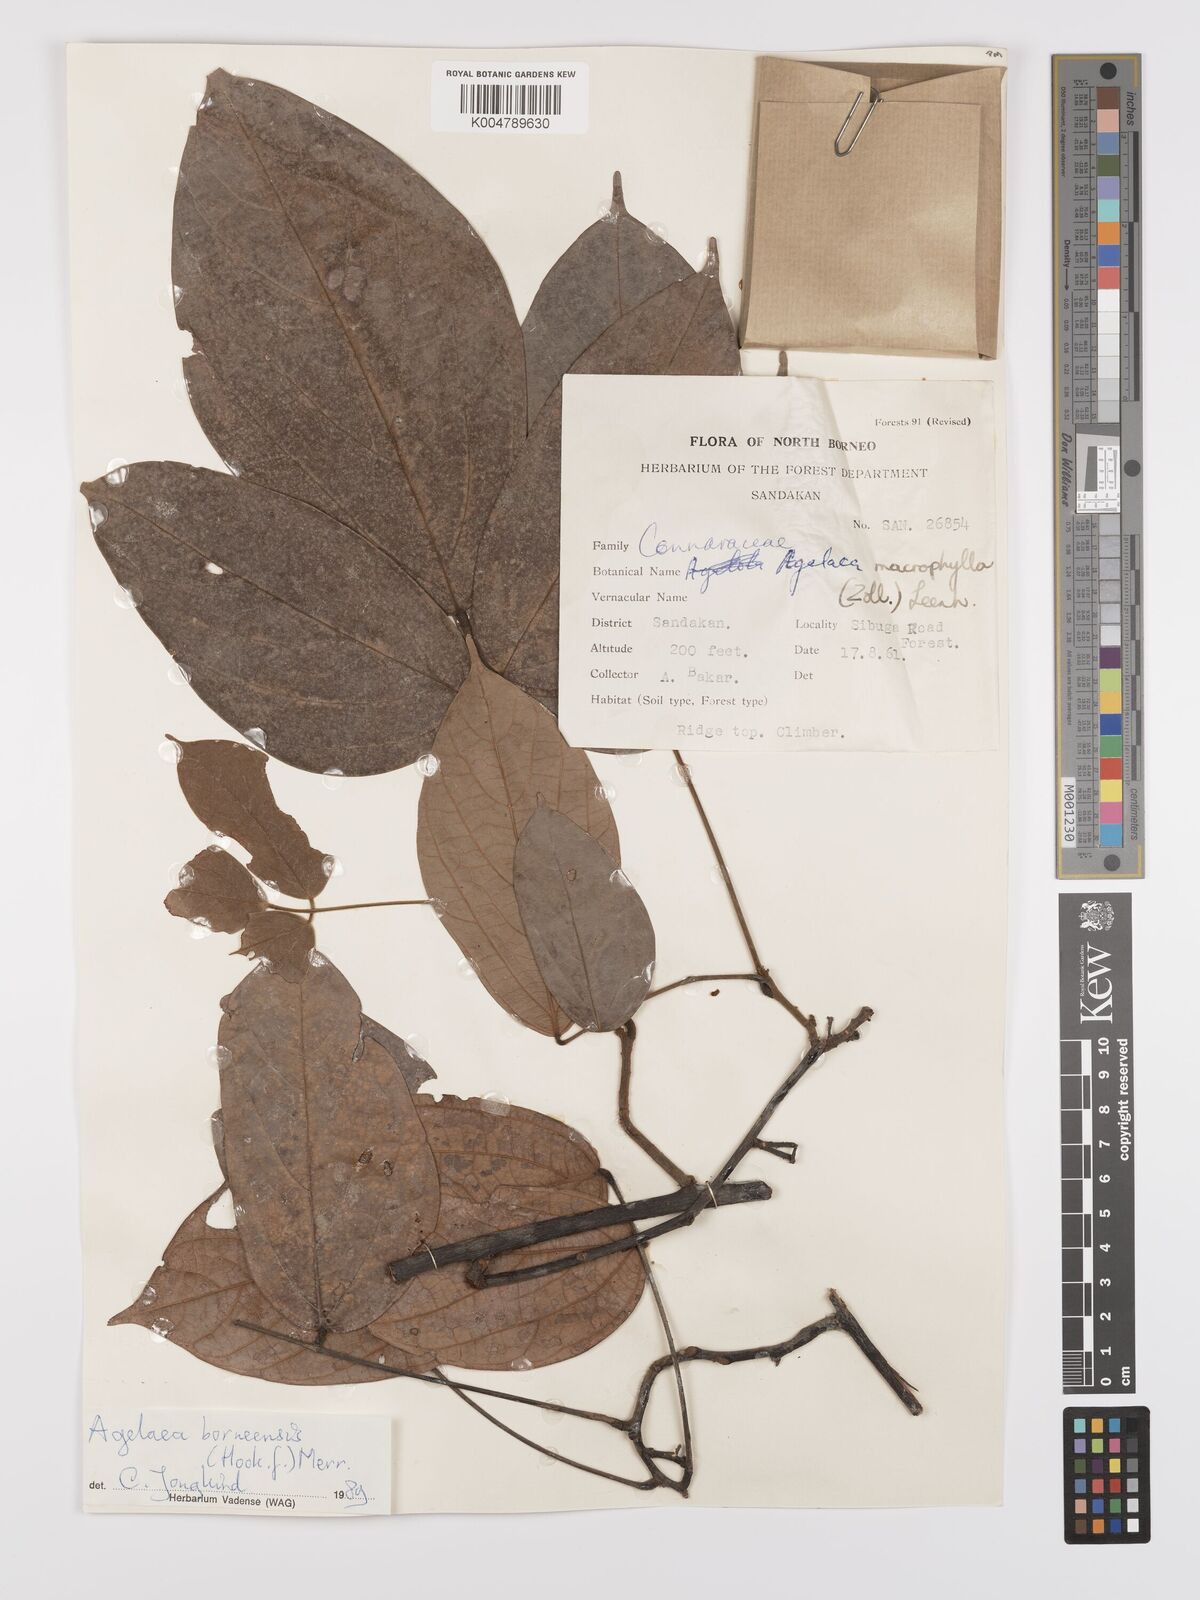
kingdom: Plantae
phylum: Tracheophyta
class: Magnoliopsida
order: Oxalidales
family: Connaraceae
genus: Agelaea
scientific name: Agelaea borneensis
